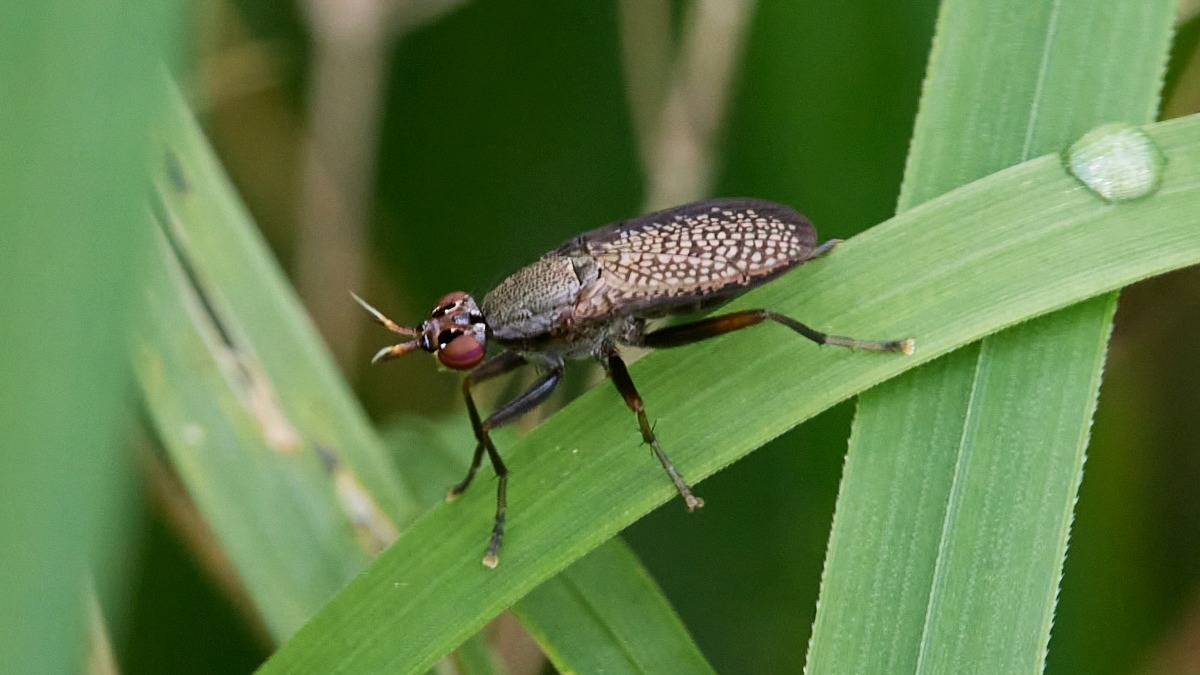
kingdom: Animalia
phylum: Arthropoda
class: Insecta
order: Diptera
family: Sciomyzidae
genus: Coremacera
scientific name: Coremacera marginata
